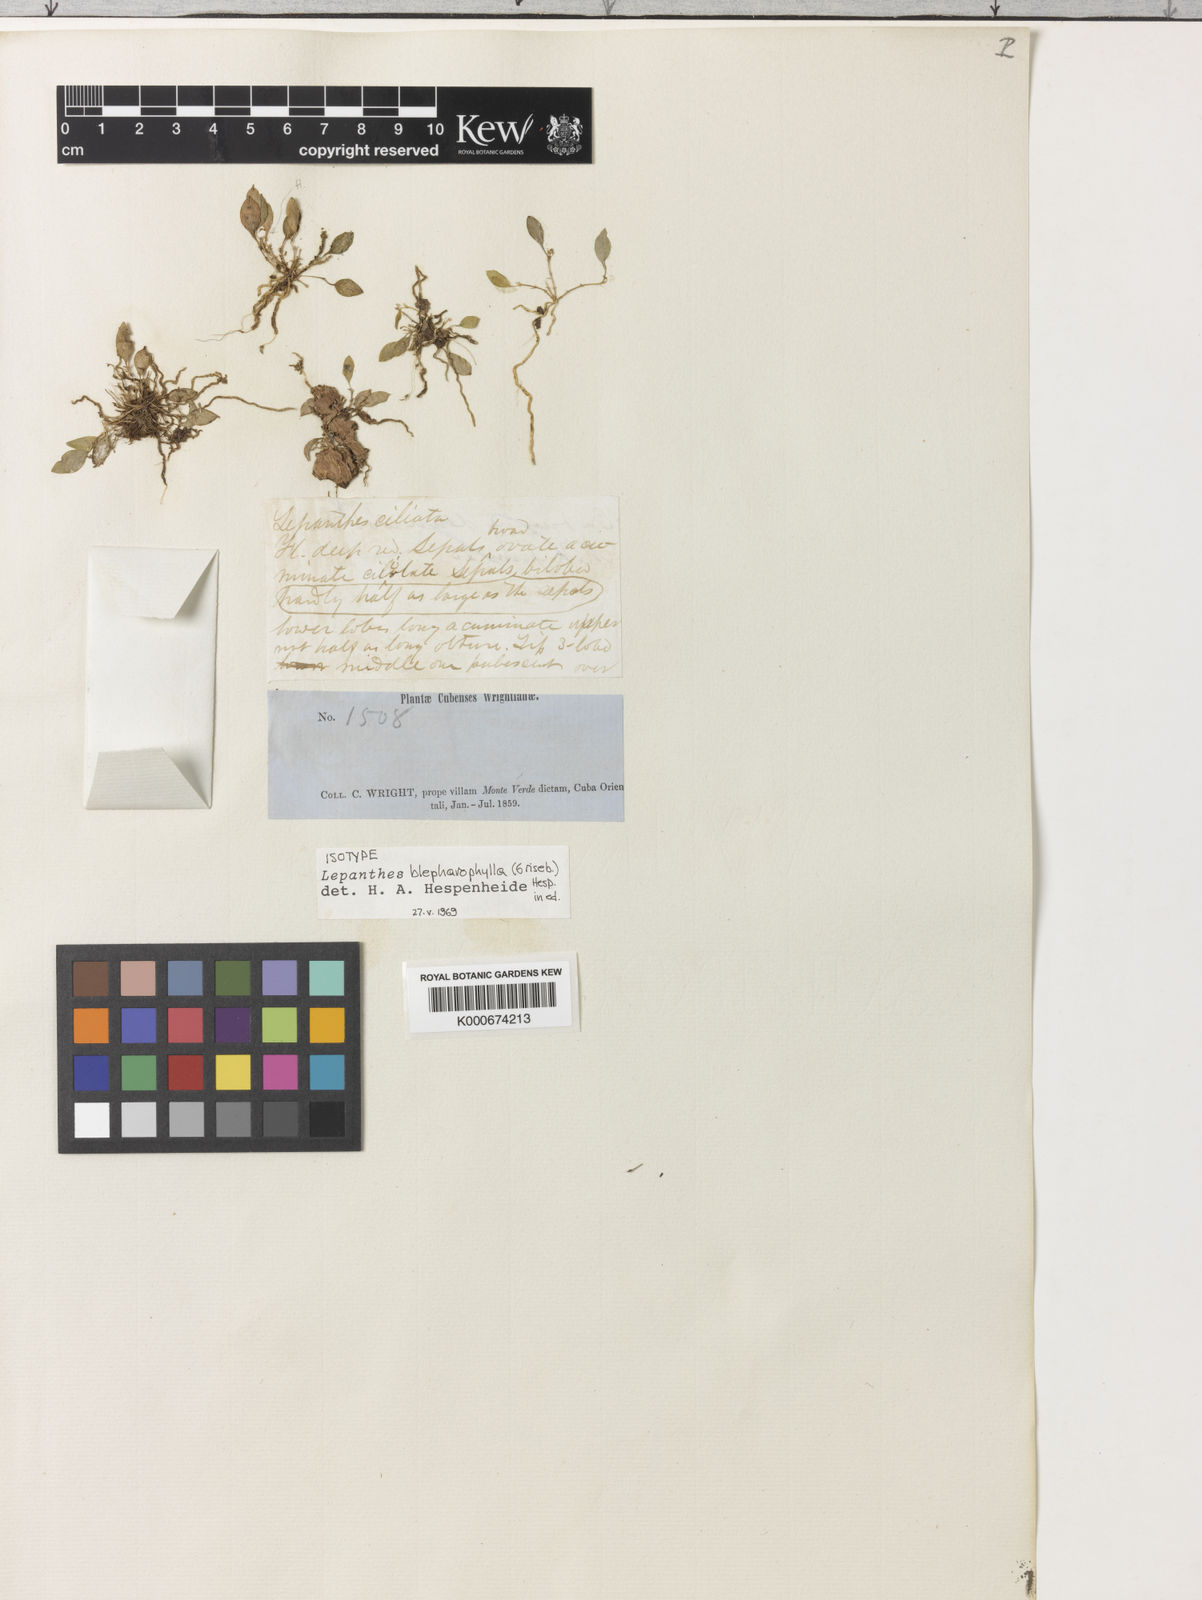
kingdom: Plantae
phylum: Tracheophyta
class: Liliopsida
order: Asparagales
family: Orchidaceae
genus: Lepanthes
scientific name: Lepanthes blepharophylla
